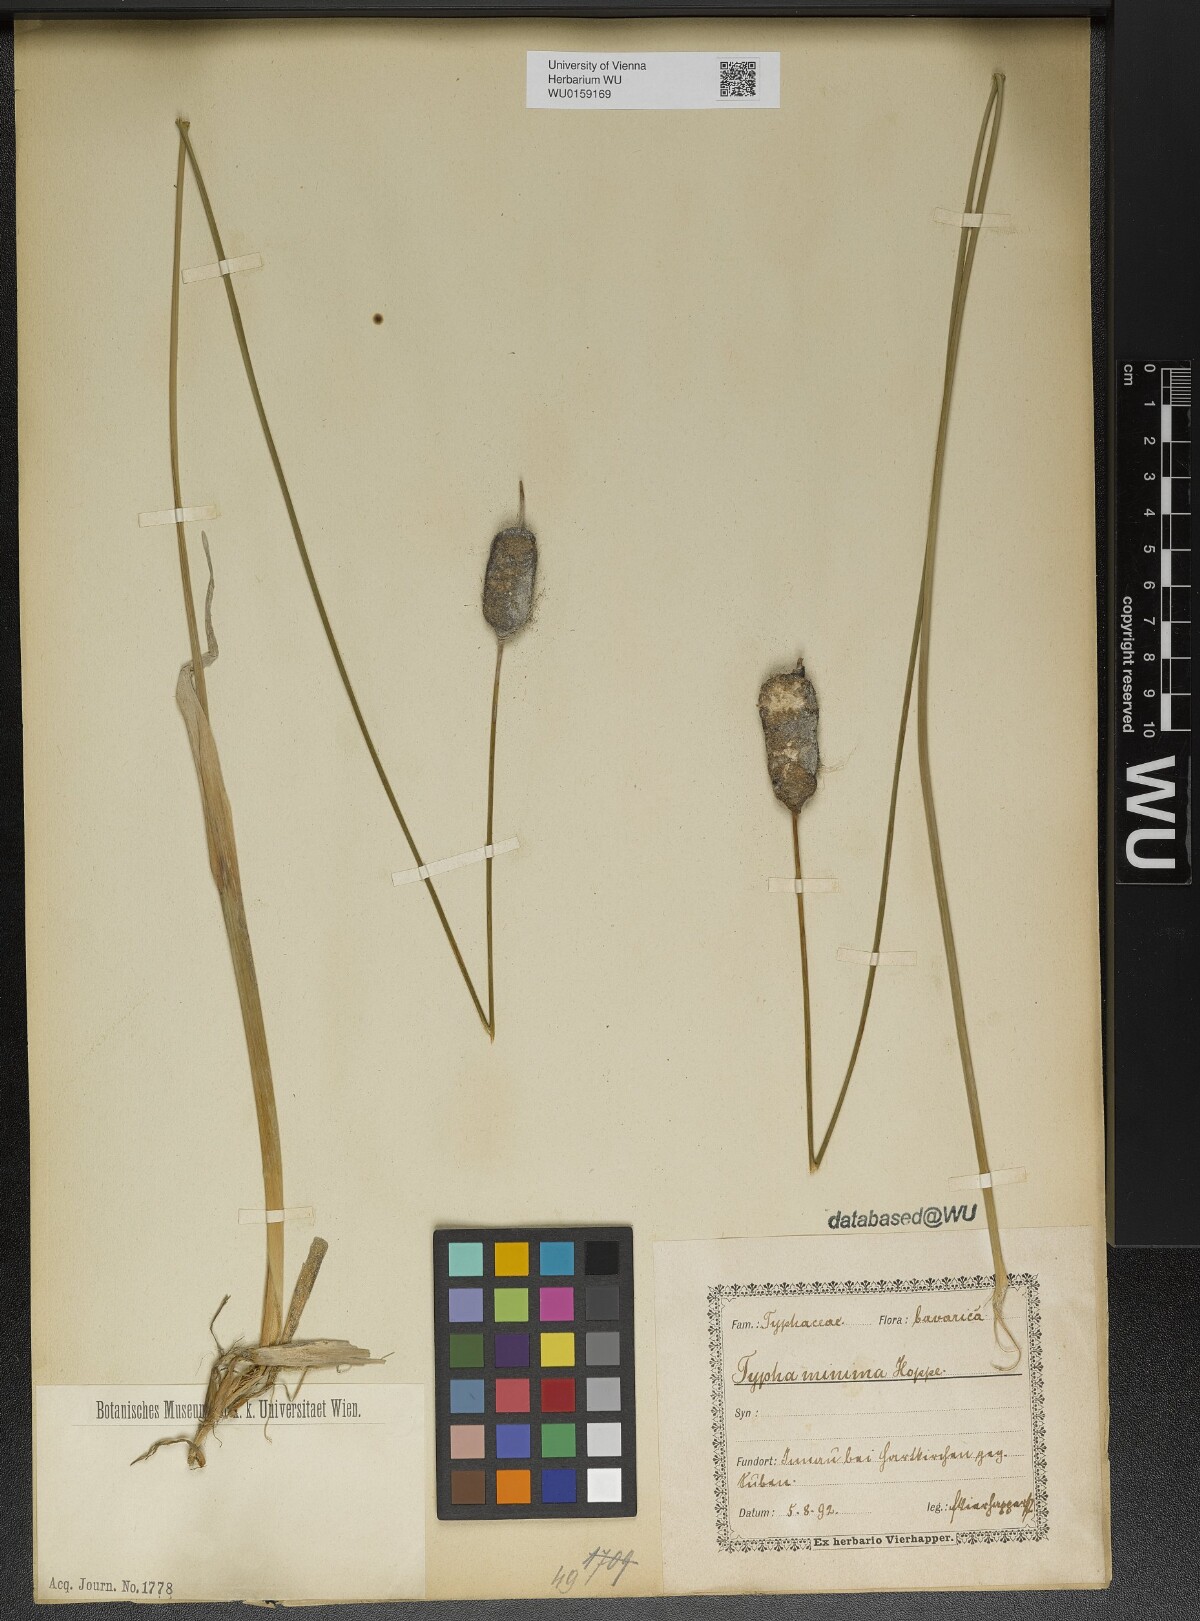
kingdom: Plantae
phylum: Tracheophyta
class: Liliopsida
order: Poales
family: Typhaceae
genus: Typha
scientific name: Typha minima
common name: Dwarf bulrush
